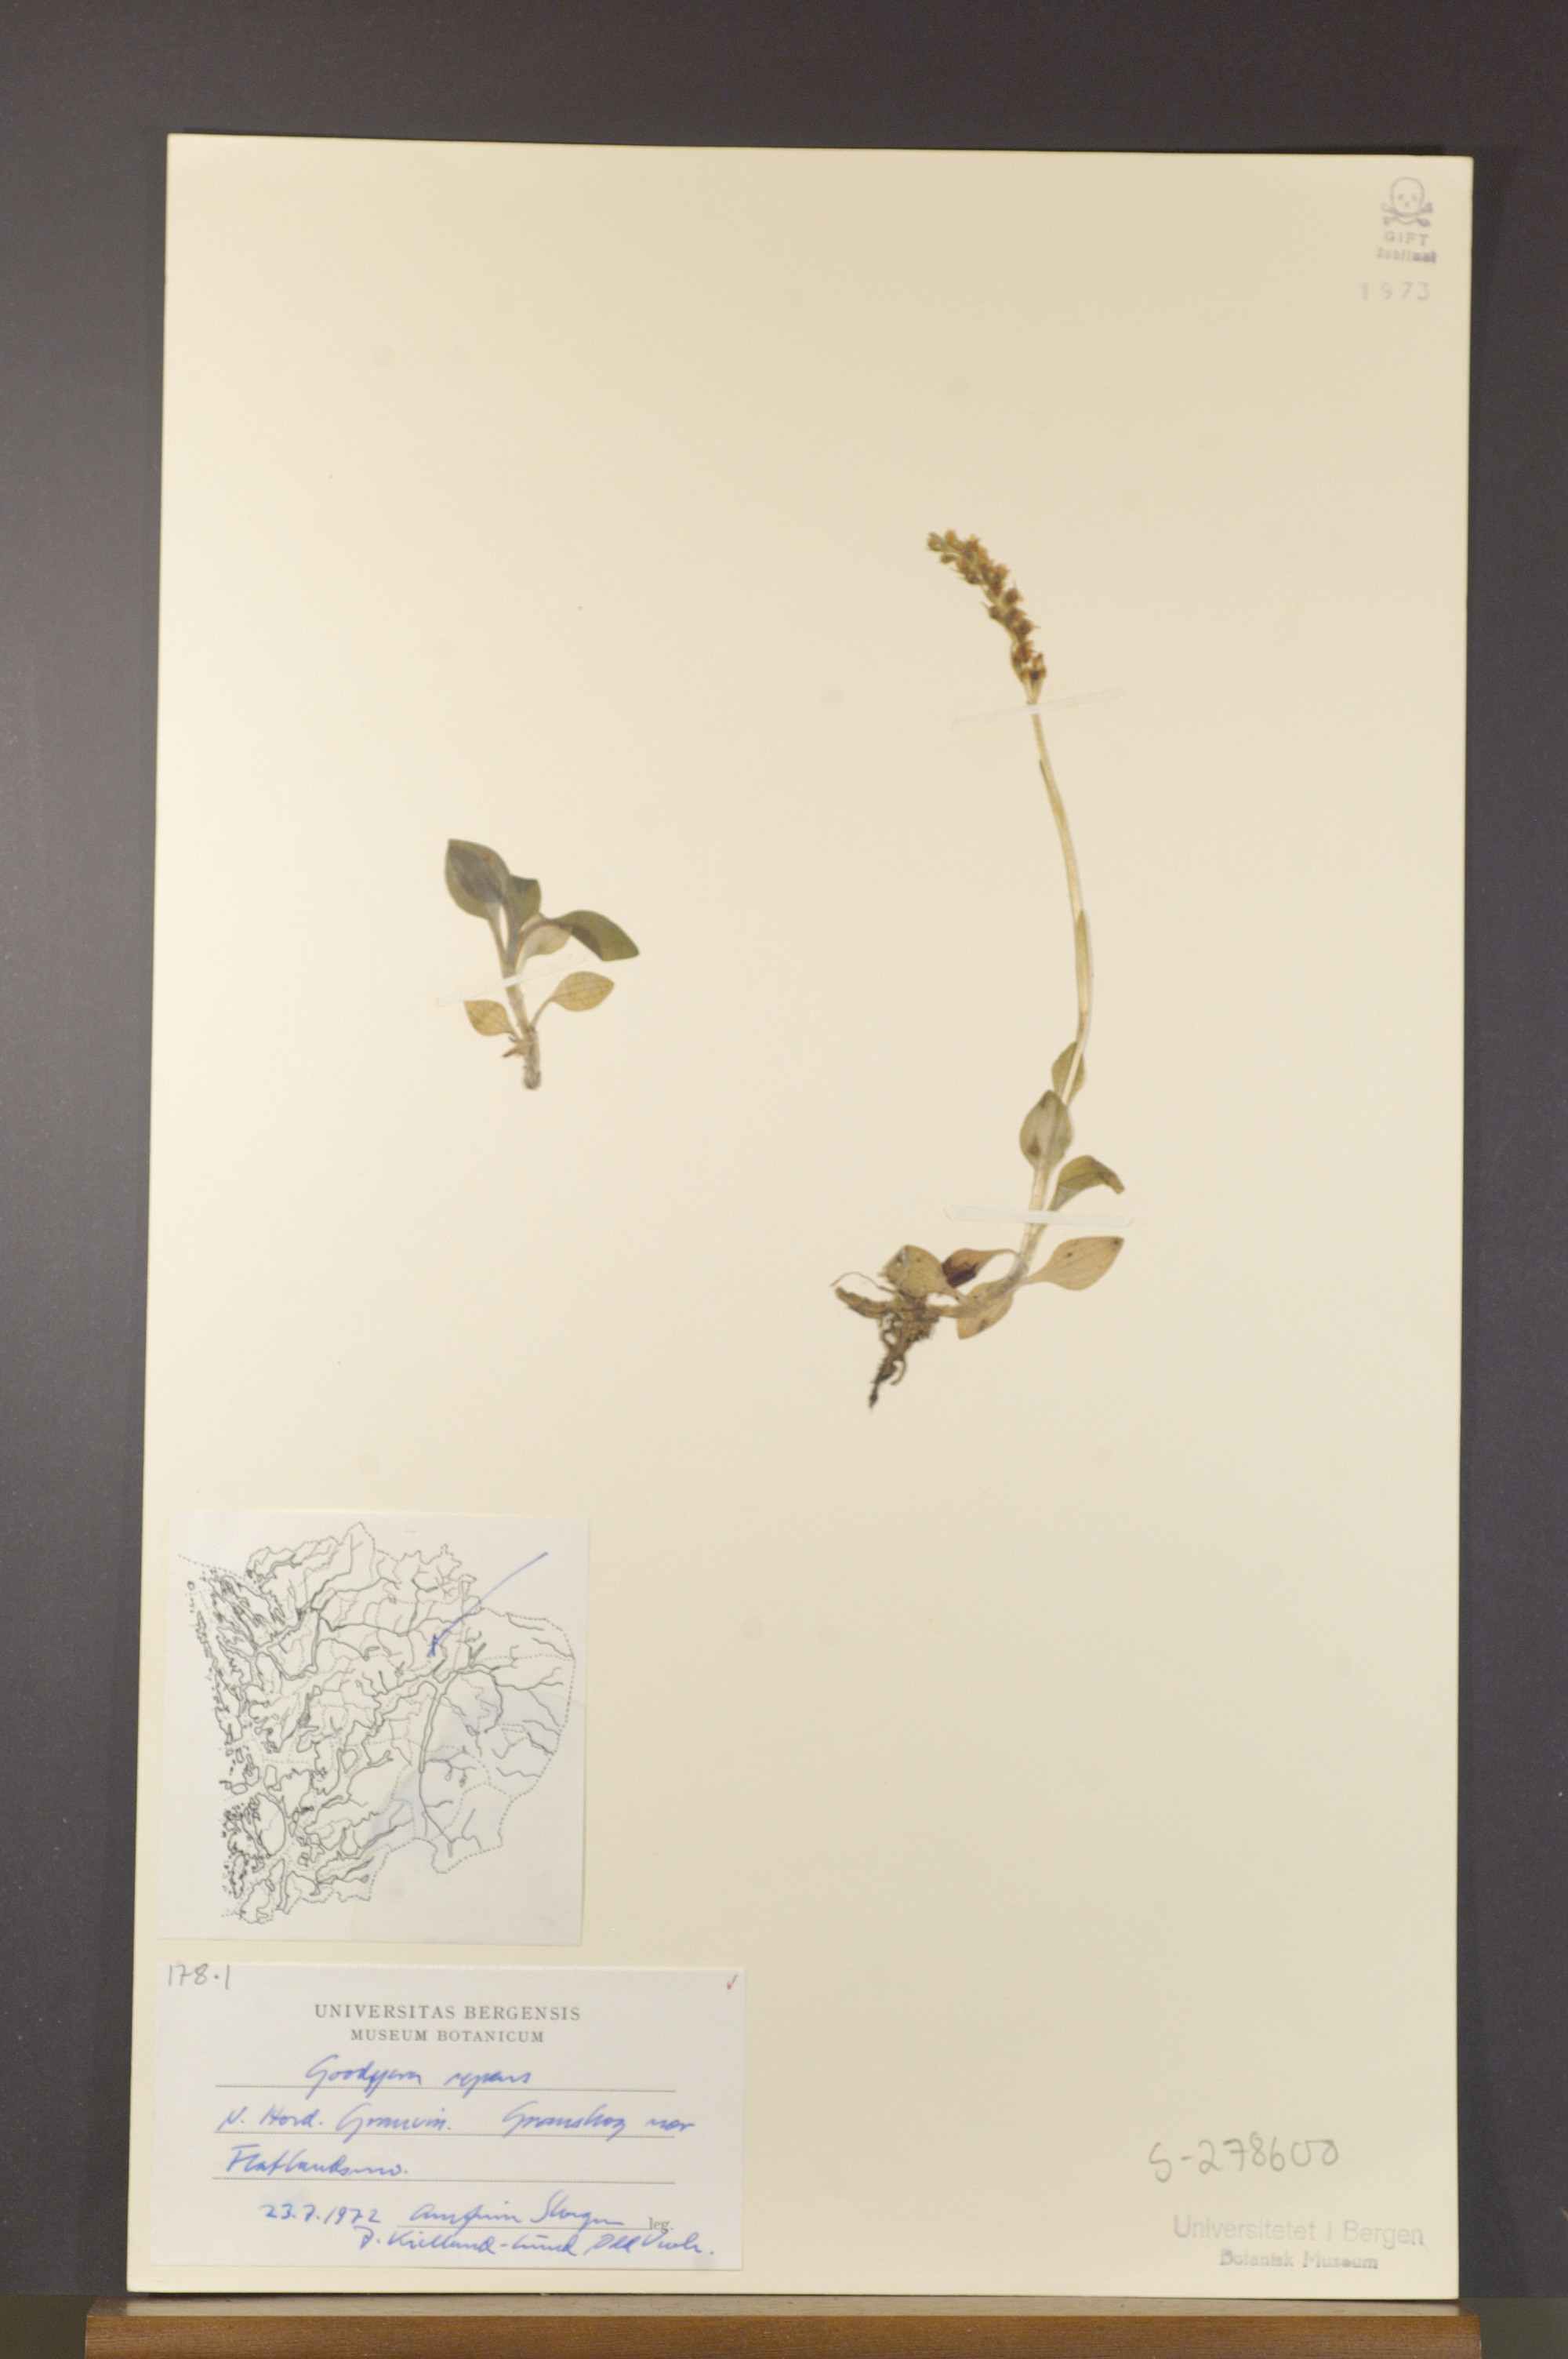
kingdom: Plantae
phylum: Tracheophyta
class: Liliopsida
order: Asparagales
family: Orchidaceae
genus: Goodyera
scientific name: Goodyera repens
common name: Creeping lady's-tresses
